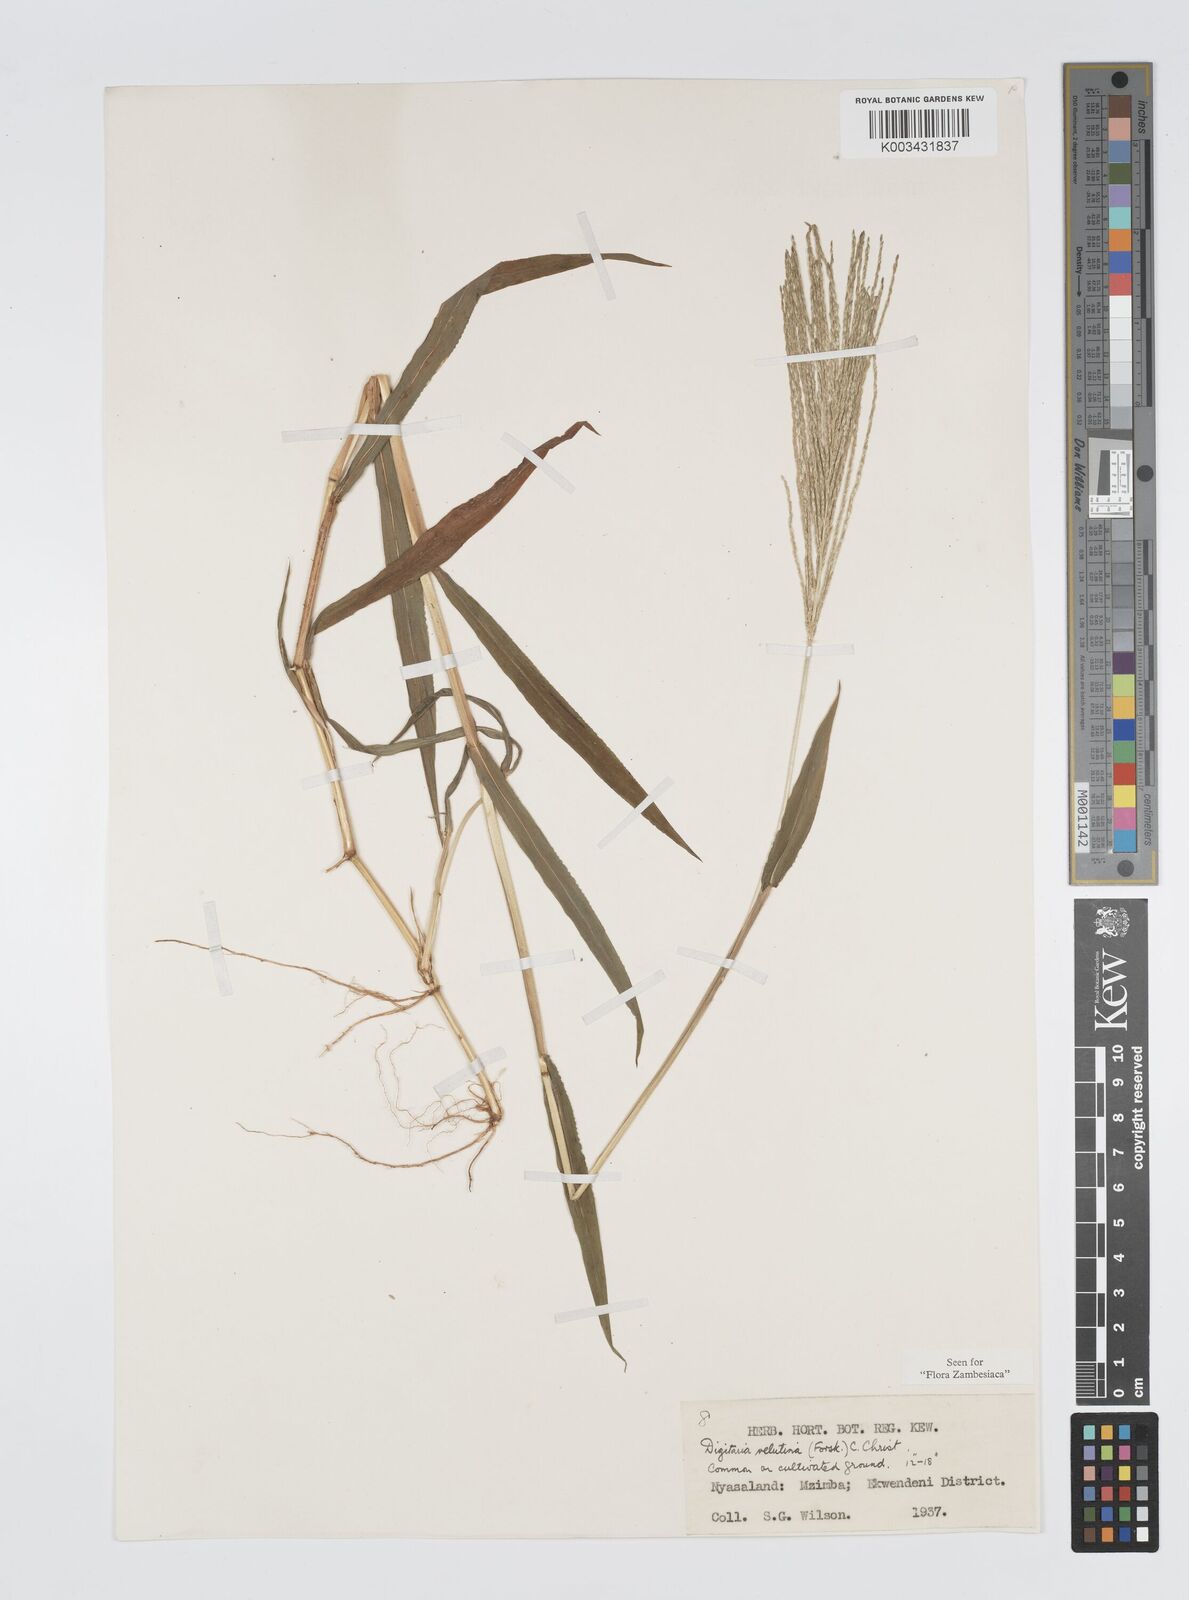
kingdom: Plantae
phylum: Tracheophyta
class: Liliopsida
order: Poales
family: Poaceae
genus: Digitaria
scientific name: Digitaria velutina
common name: Long-plume finger grass
